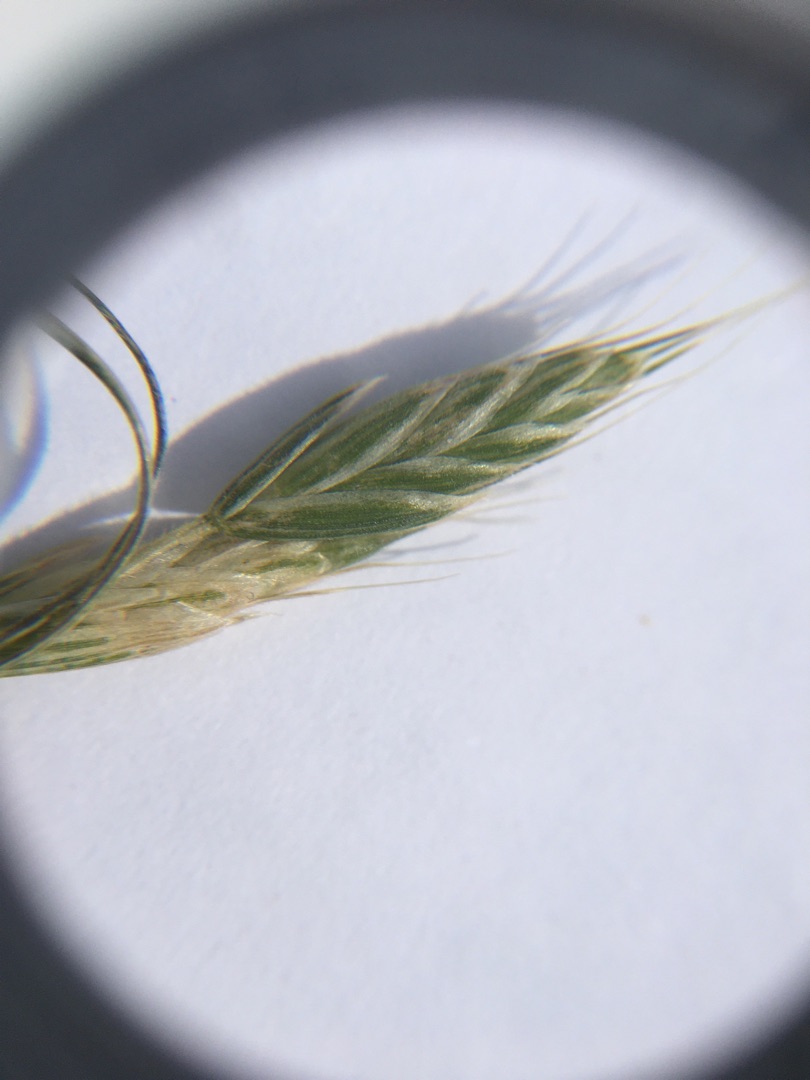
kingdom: Plantae
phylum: Tracheophyta
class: Liliopsida
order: Poales
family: Poaceae
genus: Bromus
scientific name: Bromus hordeaceus
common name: Blød hejre
